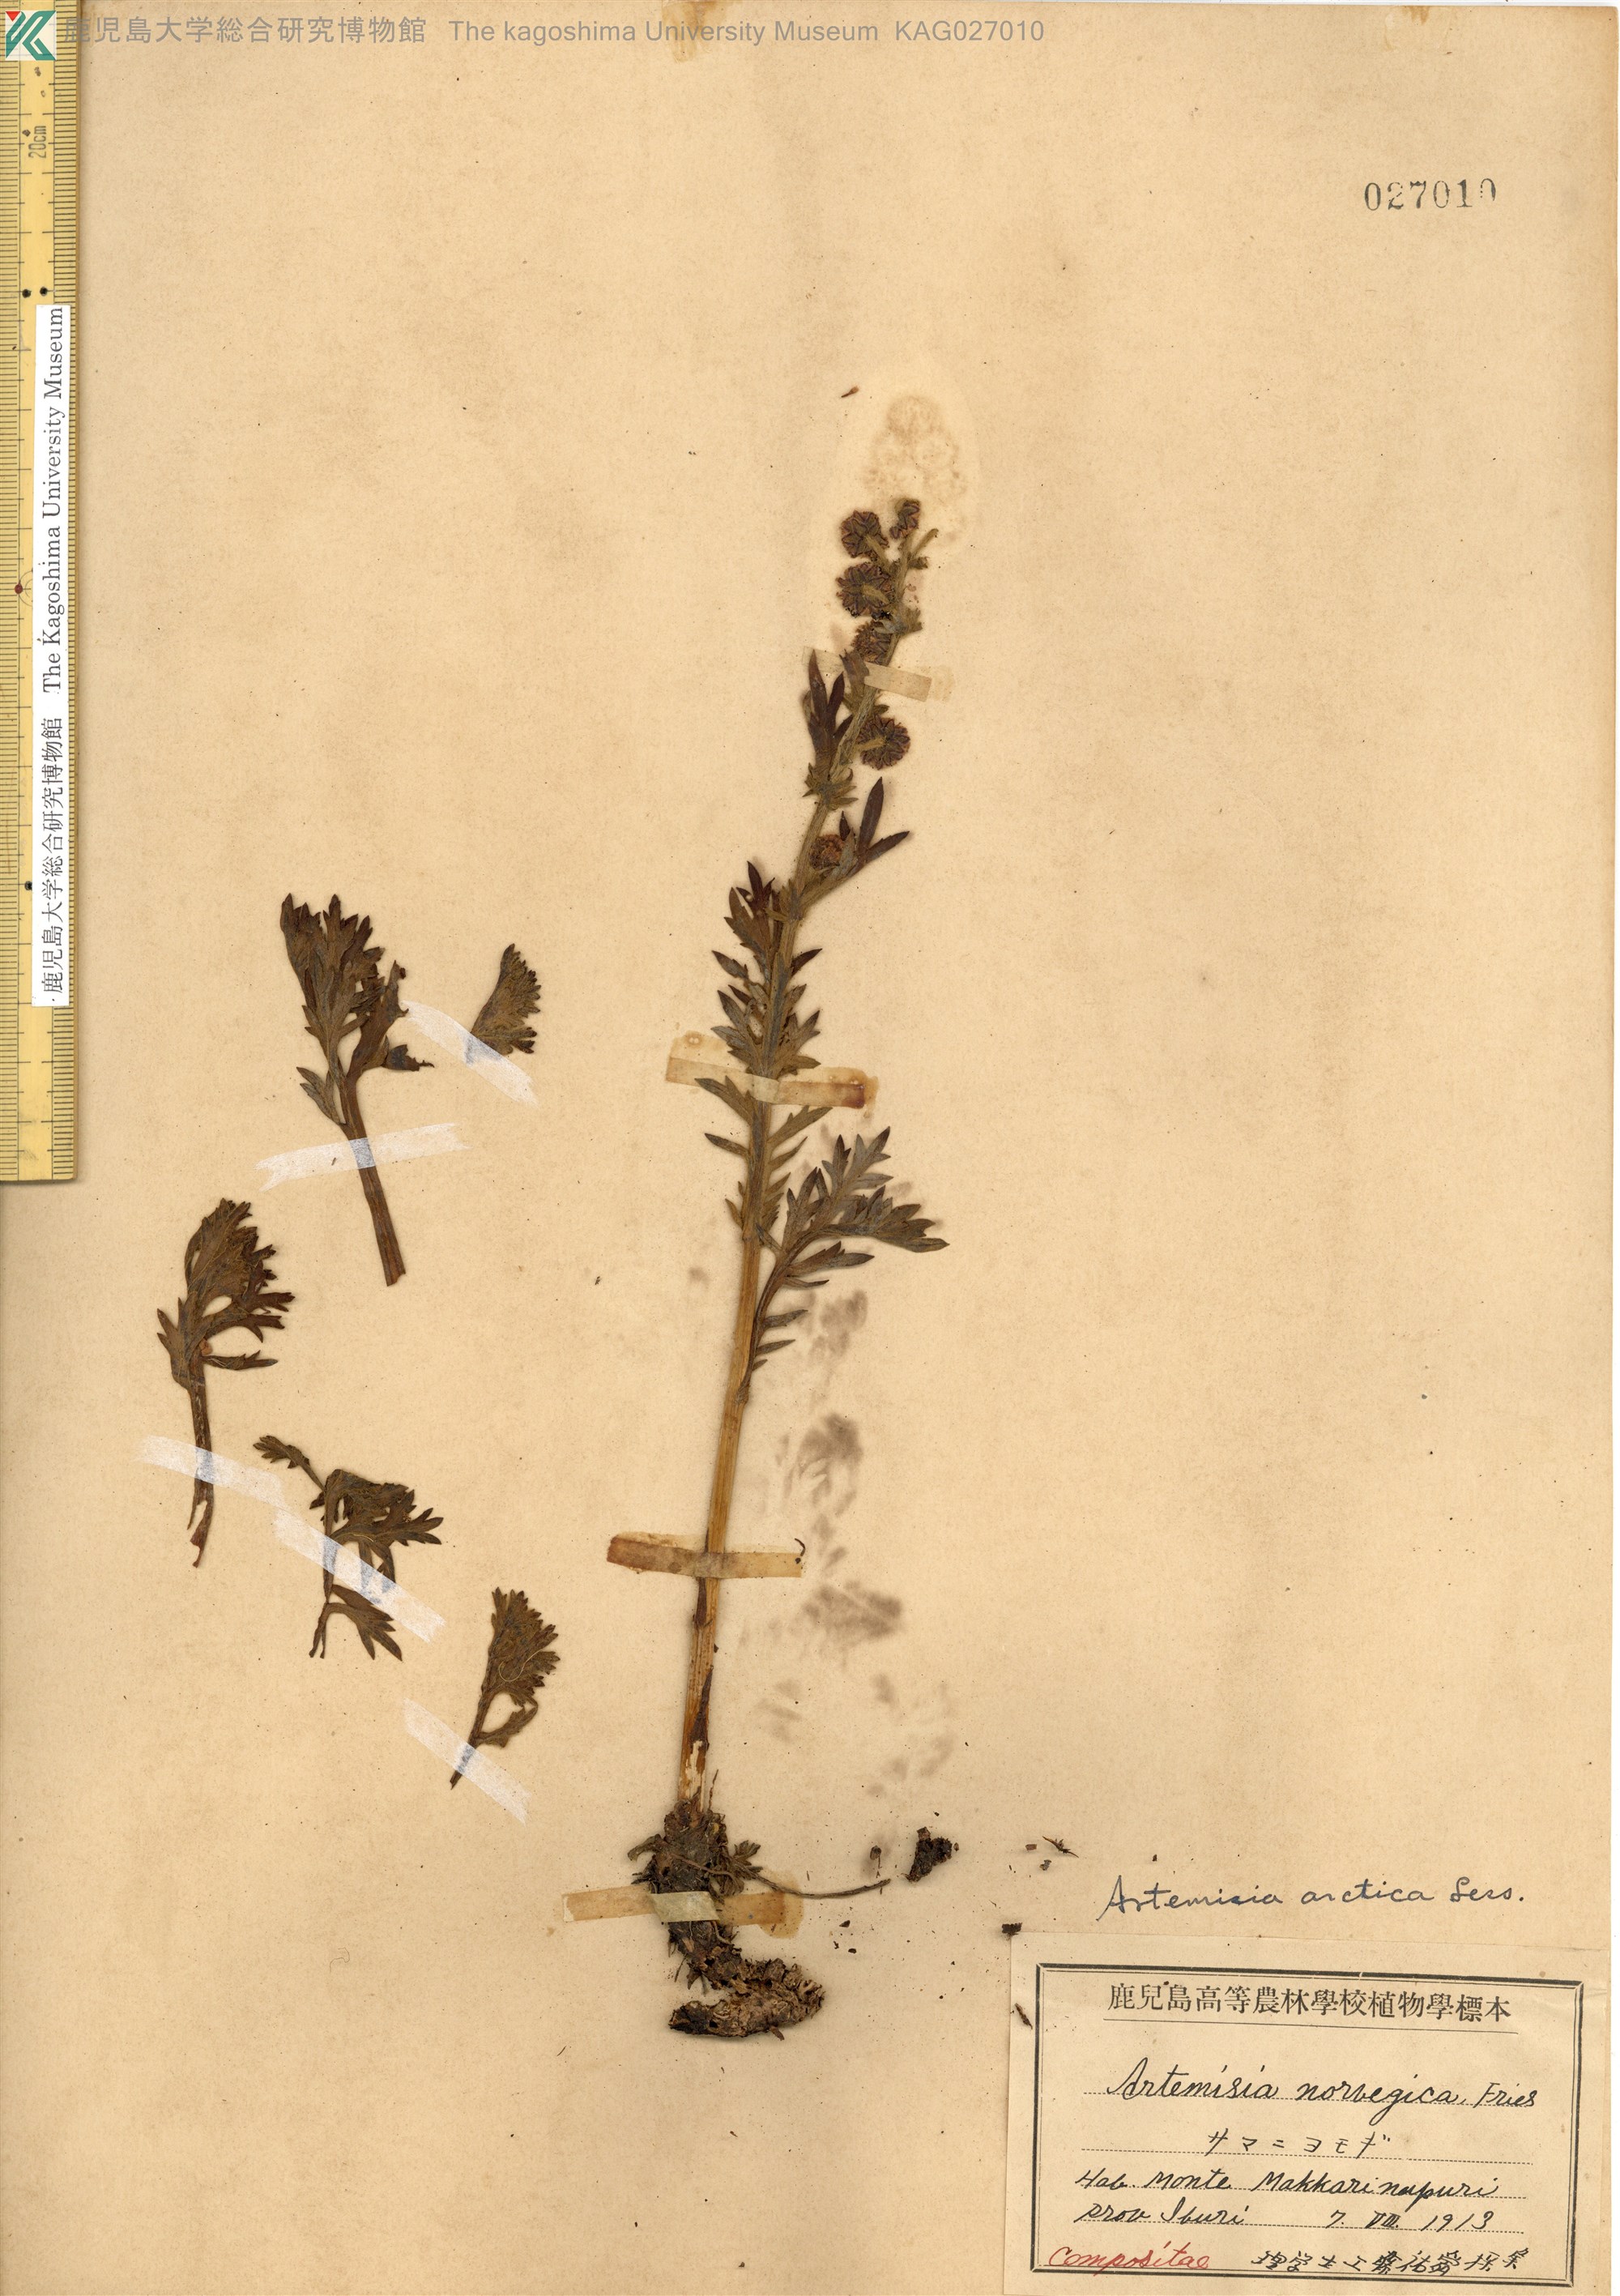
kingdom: Plantae
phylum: Tracheophyta
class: Magnoliopsida
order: Asterales
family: Asteraceae
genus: Artemisia
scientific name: Artemisia arctica
